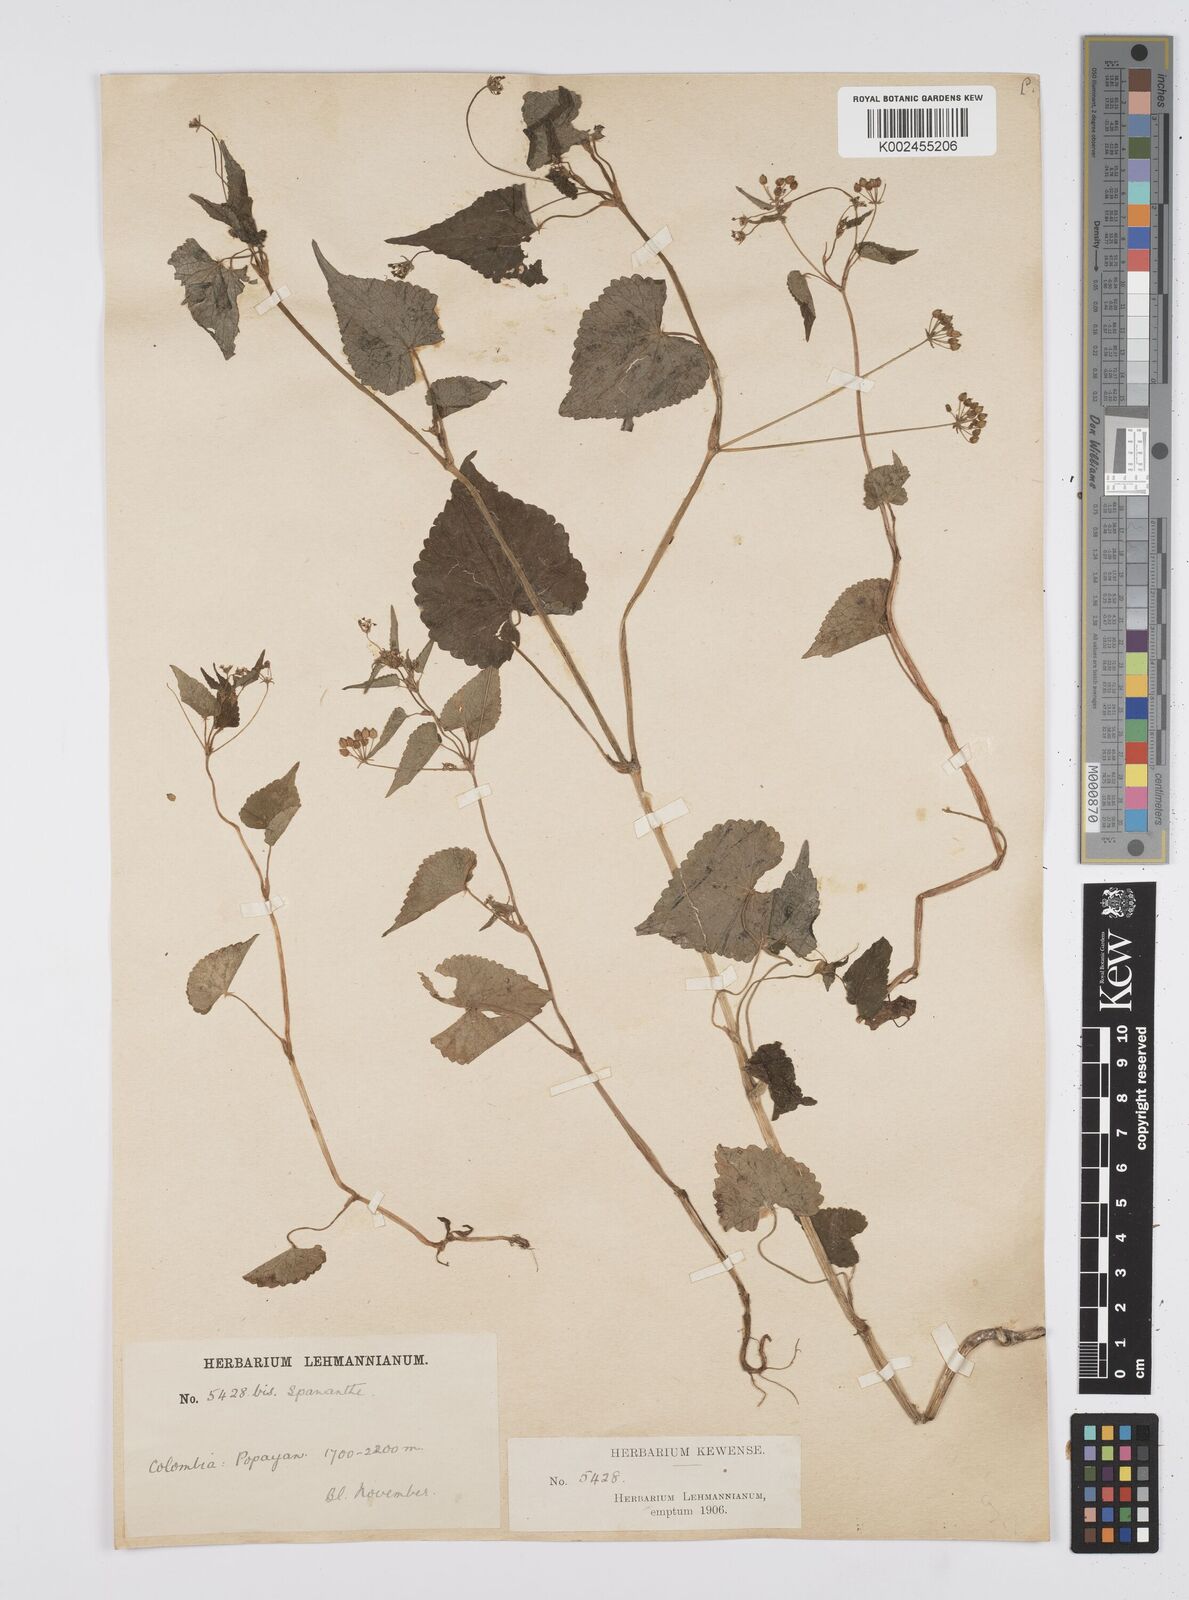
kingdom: Plantae
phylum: Tracheophyta
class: Magnoliopsida
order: Apiales
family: Apiaceae
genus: Azorella
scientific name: Azorella
